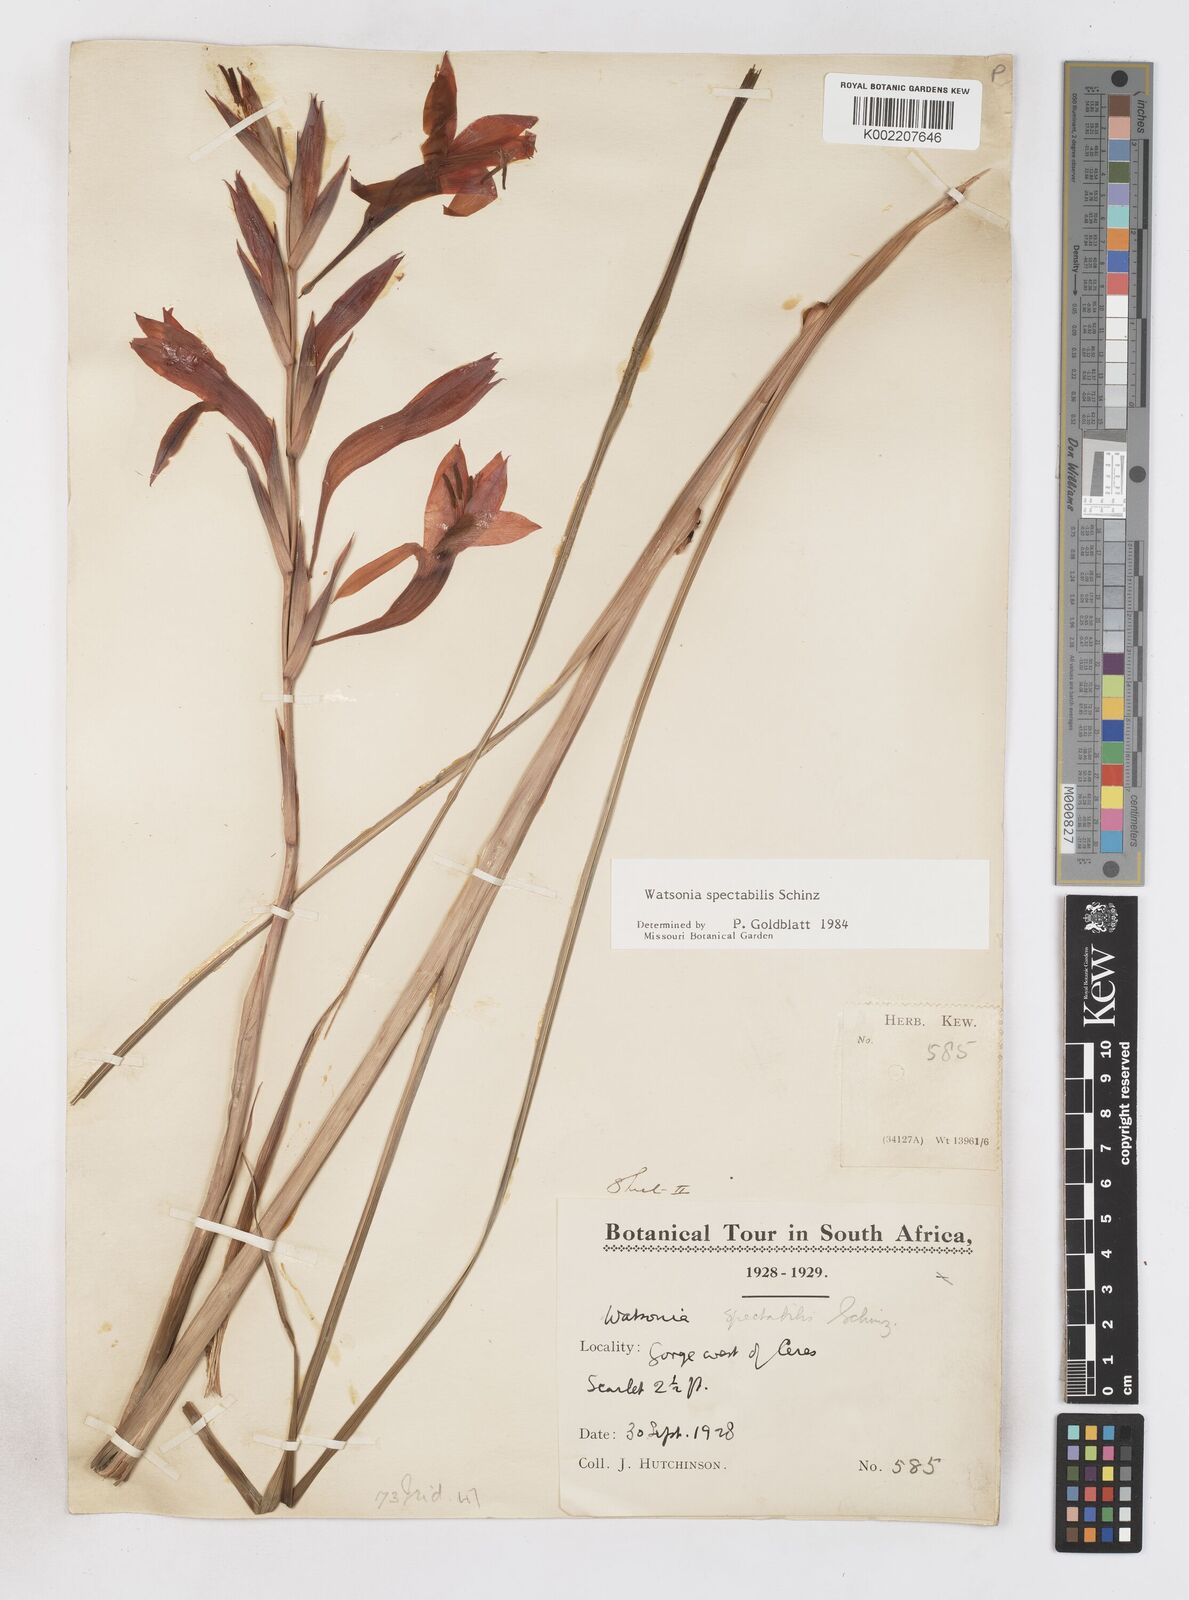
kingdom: Plantae
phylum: Tracheophyta
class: Liliopsida
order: Asparagales
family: Iridaceae
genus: Watsonia
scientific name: Watsonia spectabilis
